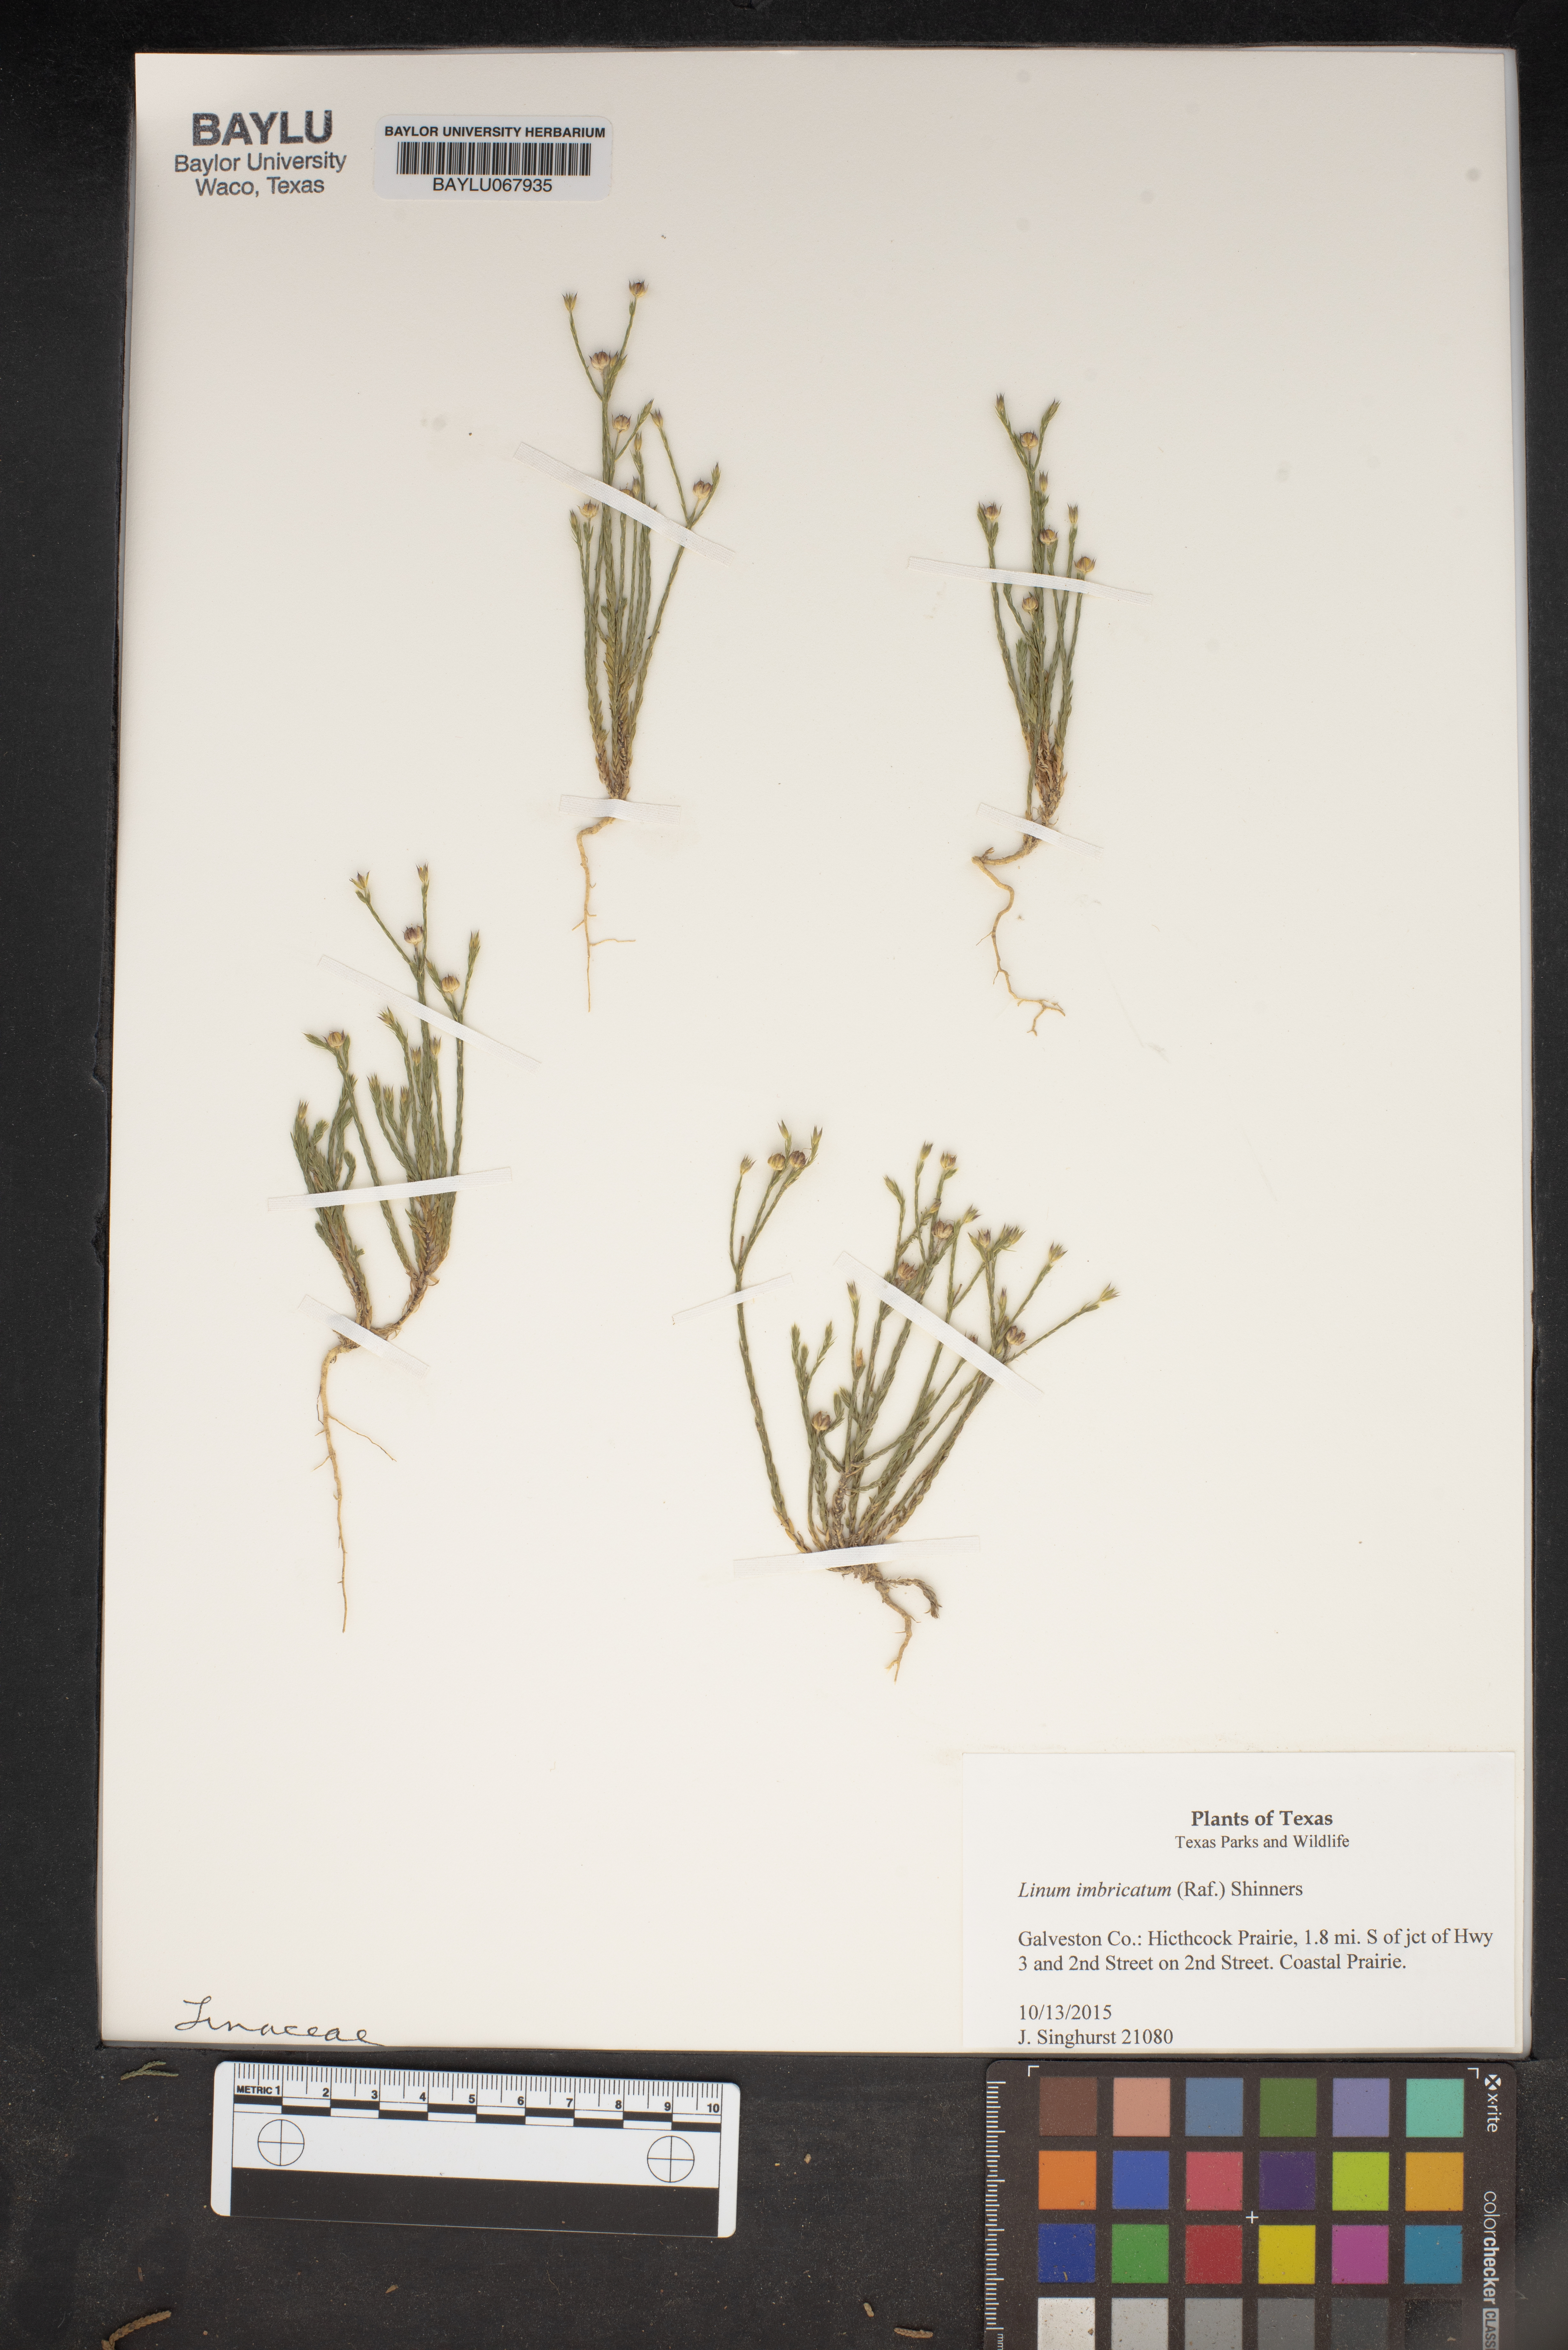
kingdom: Plantae
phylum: Tracheophyta
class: Magnoliopsida
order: Malpighiales
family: Linaceae
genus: Linum
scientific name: Linum imbricatum
